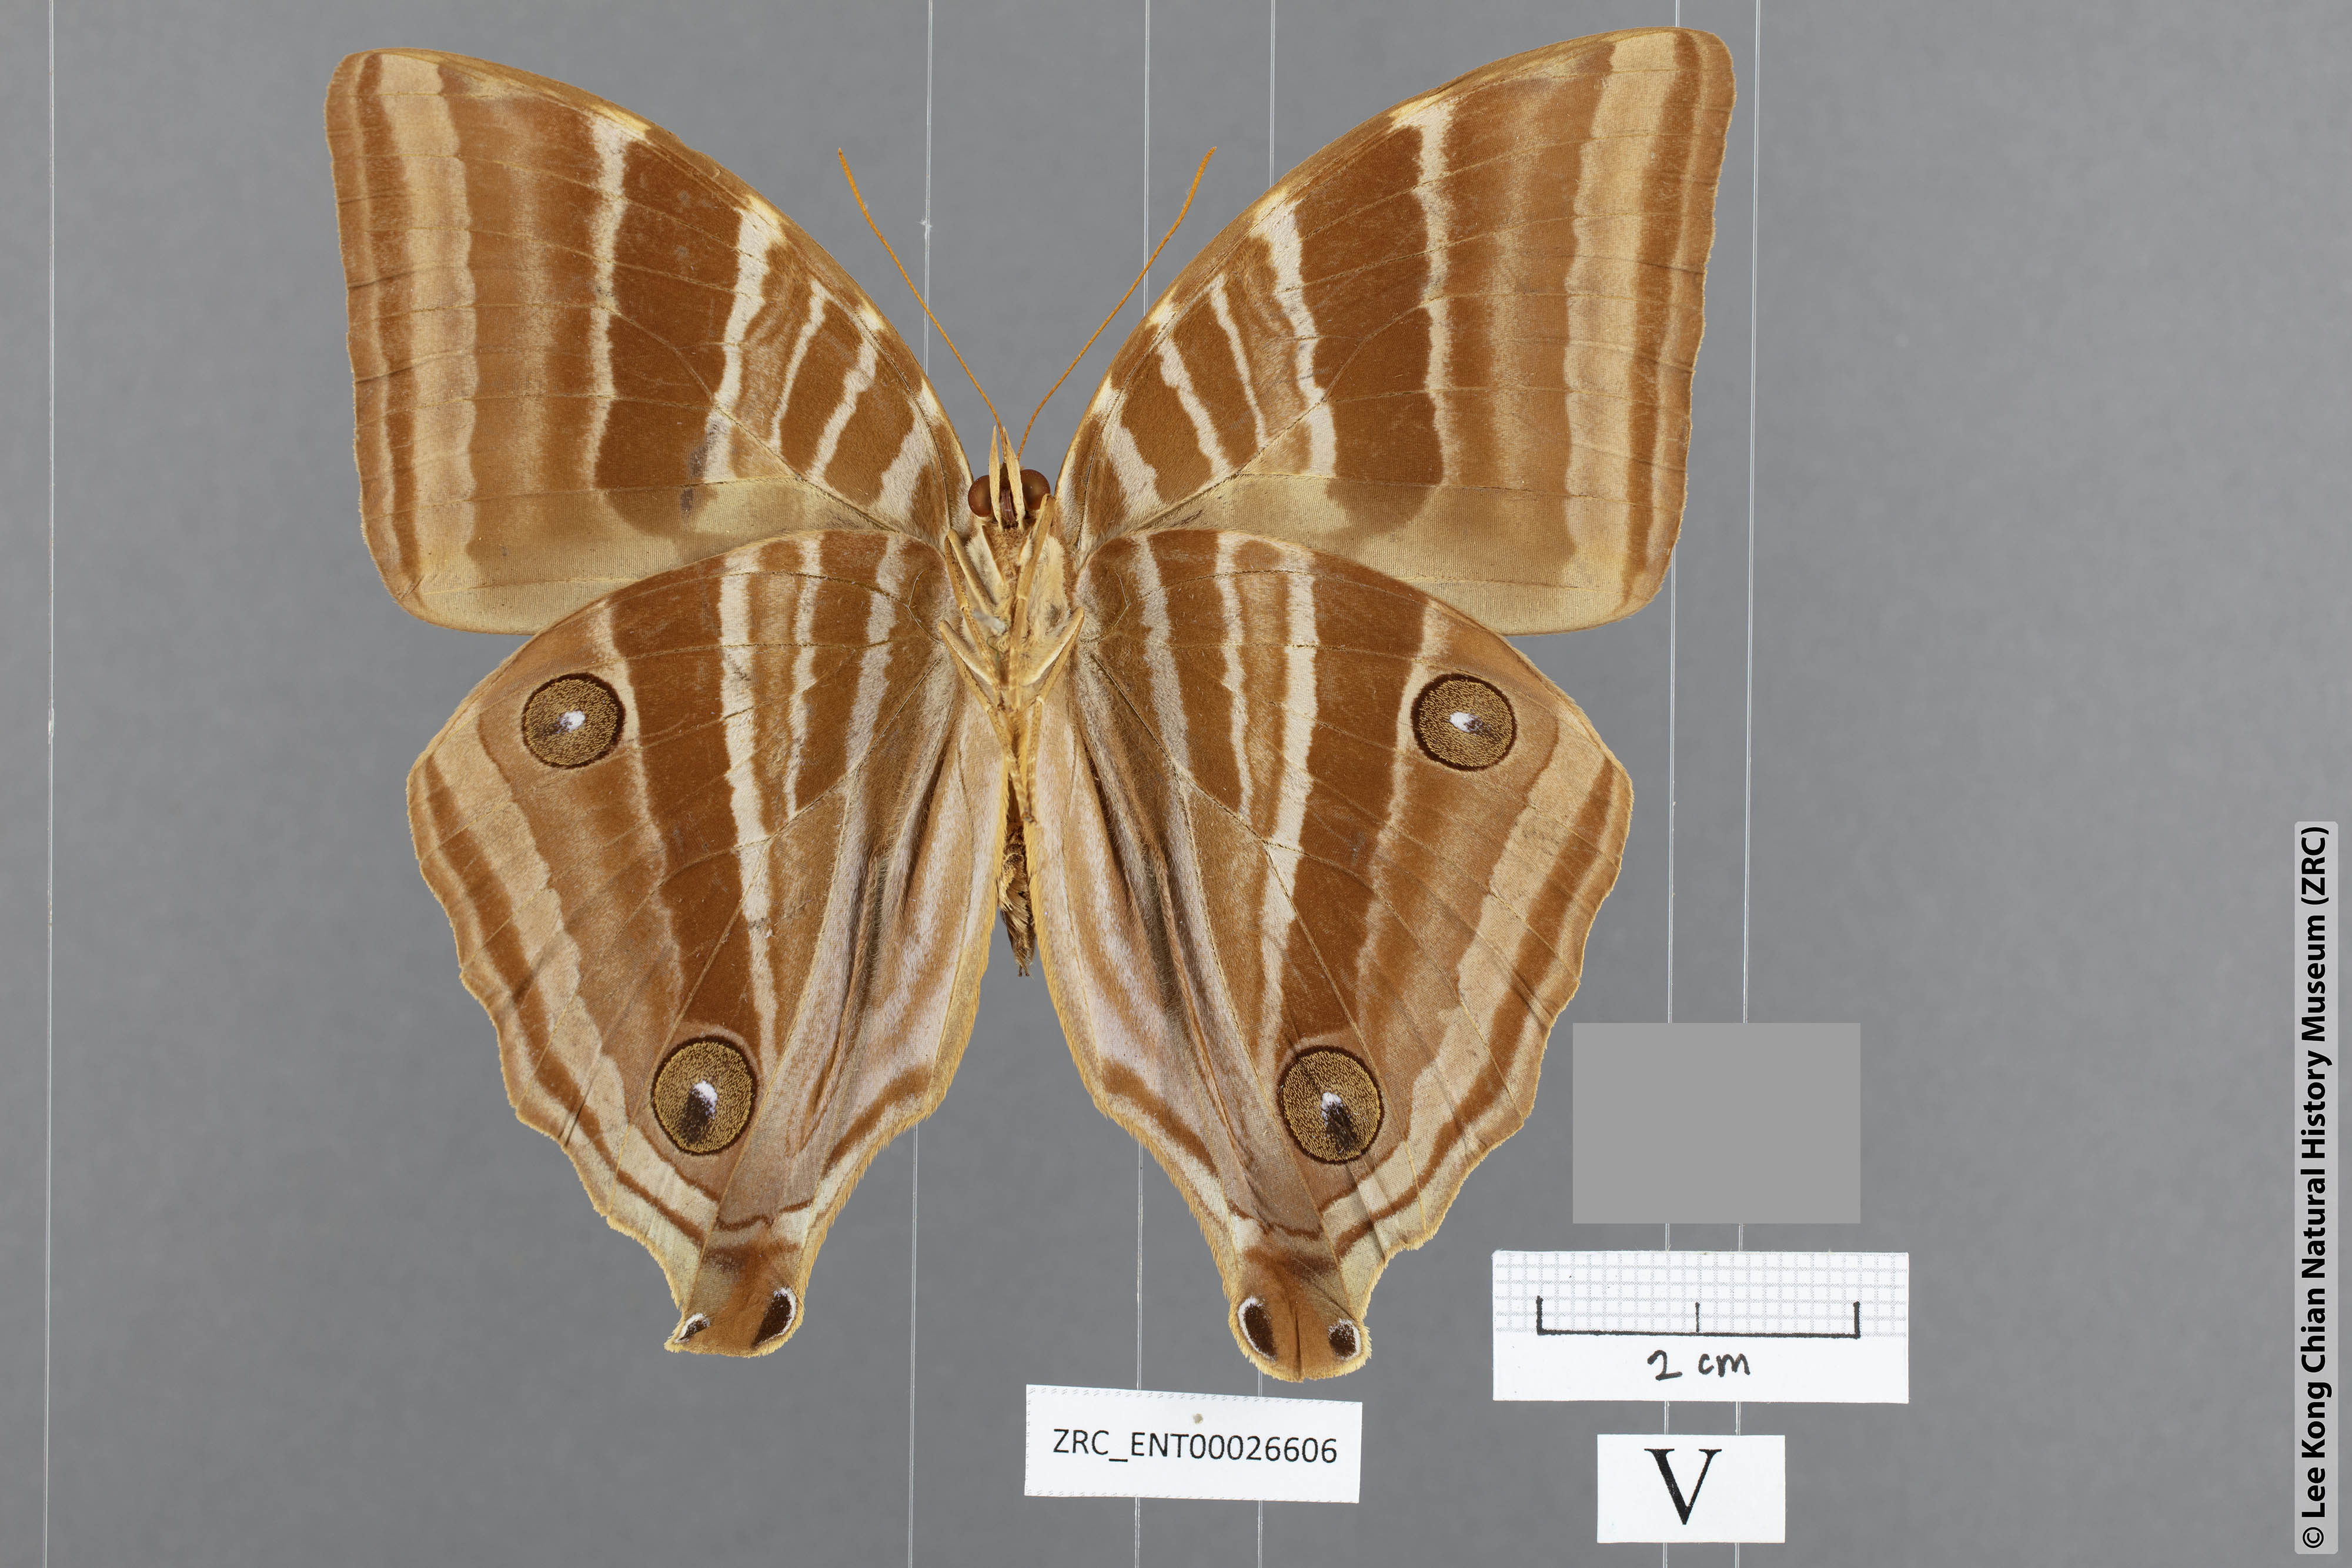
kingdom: Animalia
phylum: Arthropoda
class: Insecta
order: Lepidoptera
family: Nymphalidae
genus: Amathusia
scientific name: Amathusia friderici
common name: Bicolor-haired palm king
